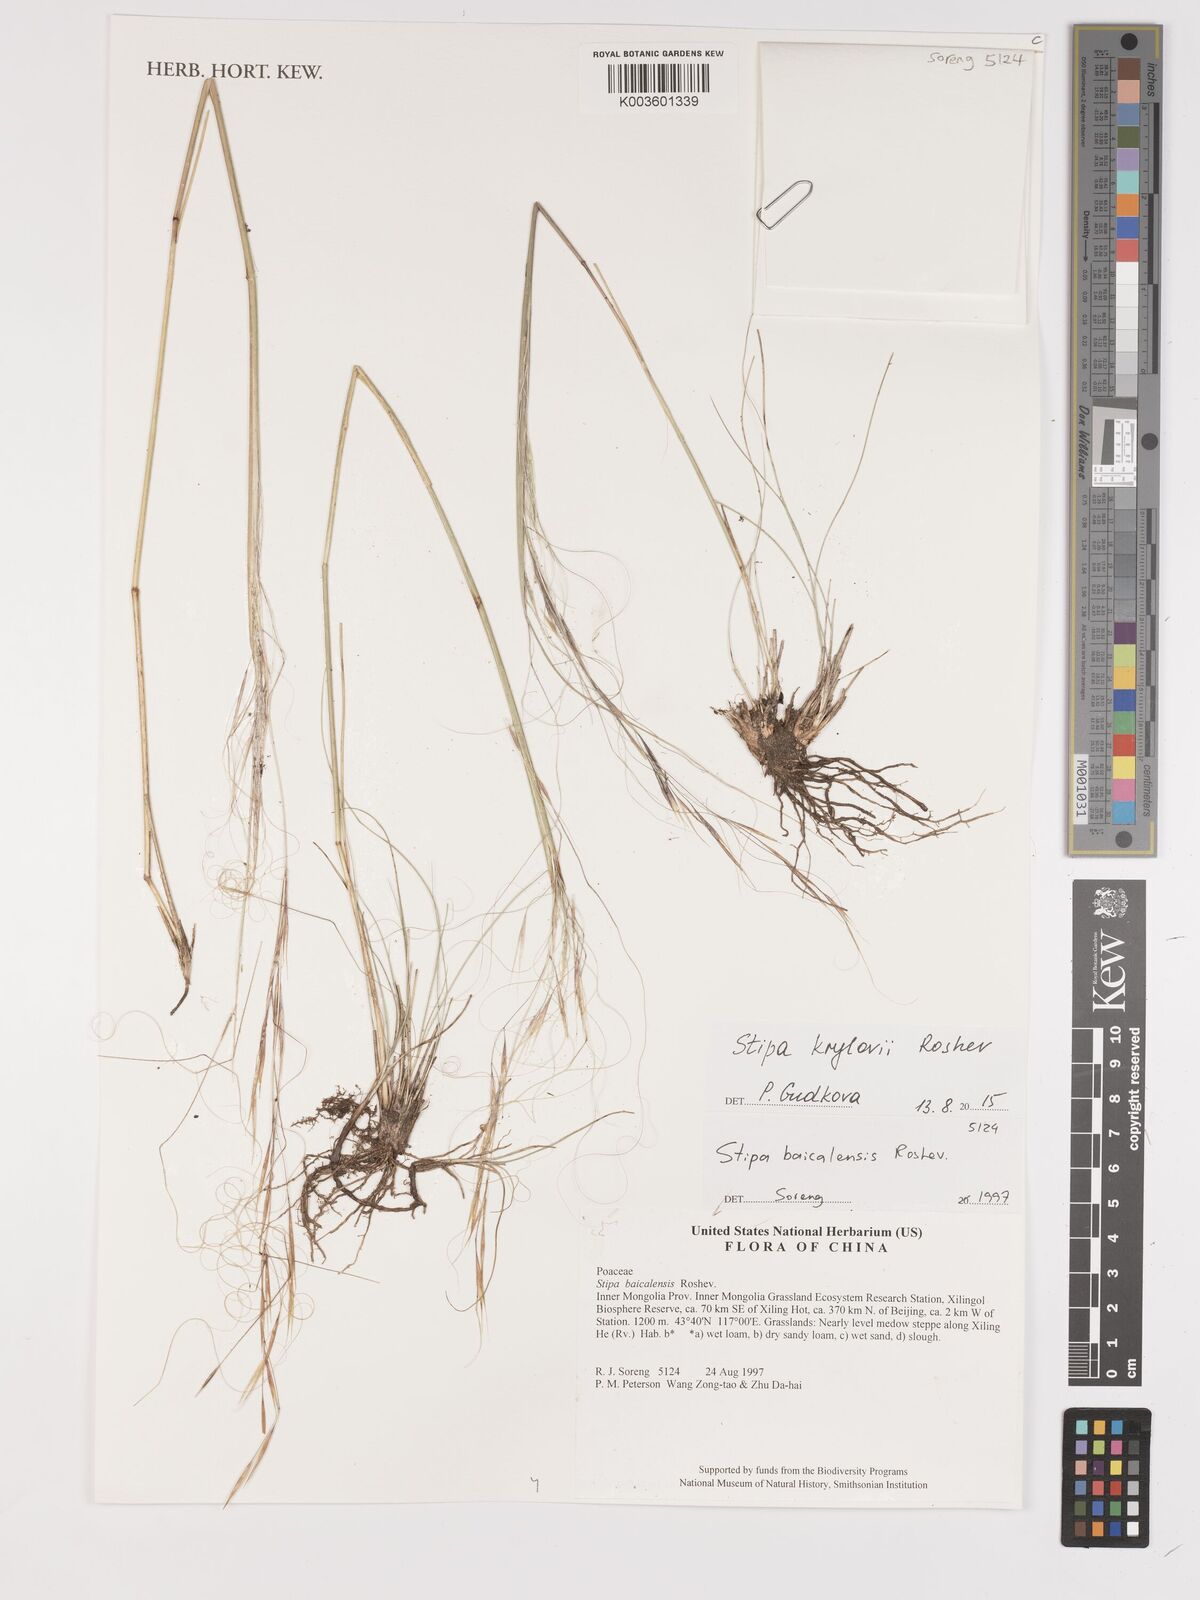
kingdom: Plantae
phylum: Tracheophyta
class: Liliopsida
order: Poales
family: Poaceae
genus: Stipa
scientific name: Stipa krylovii
